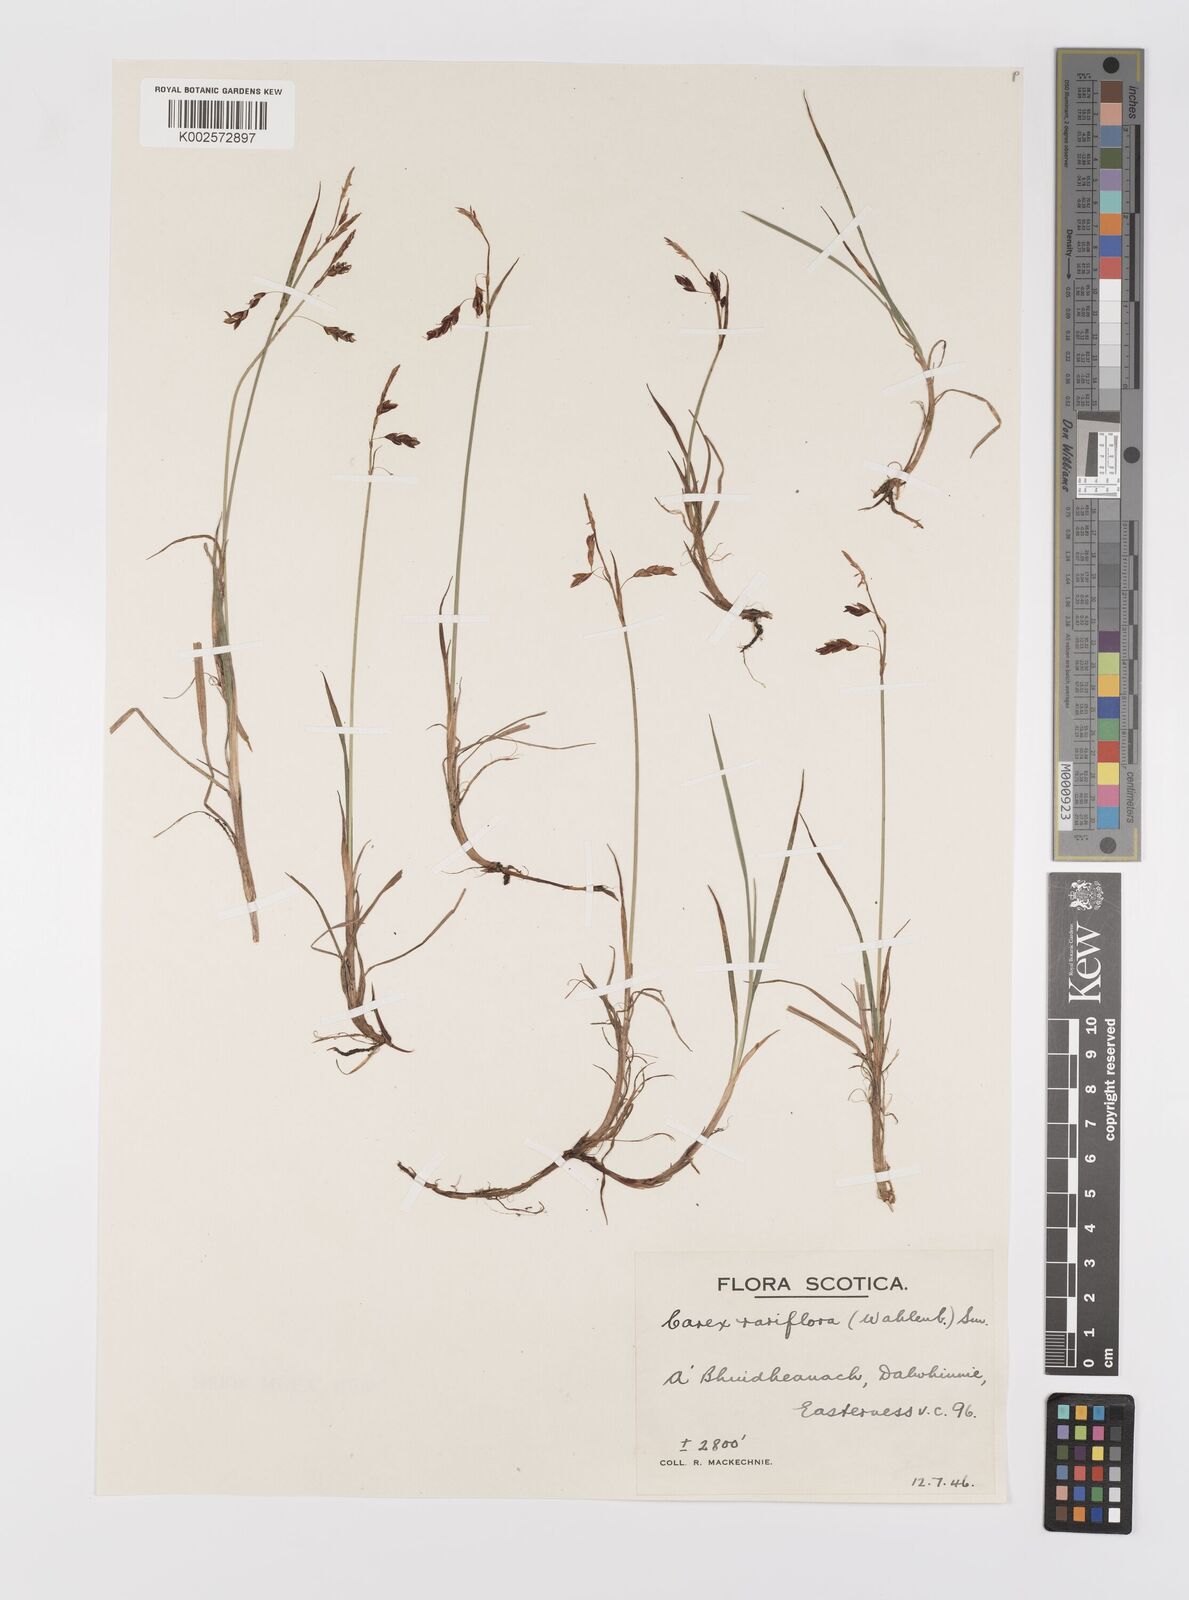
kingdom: Plantae
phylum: Tracheophyta
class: Liliopsida
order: Poales
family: Cyperaceae
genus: Carex
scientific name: Carex rariflora
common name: Loose-flowered alpine sedge
